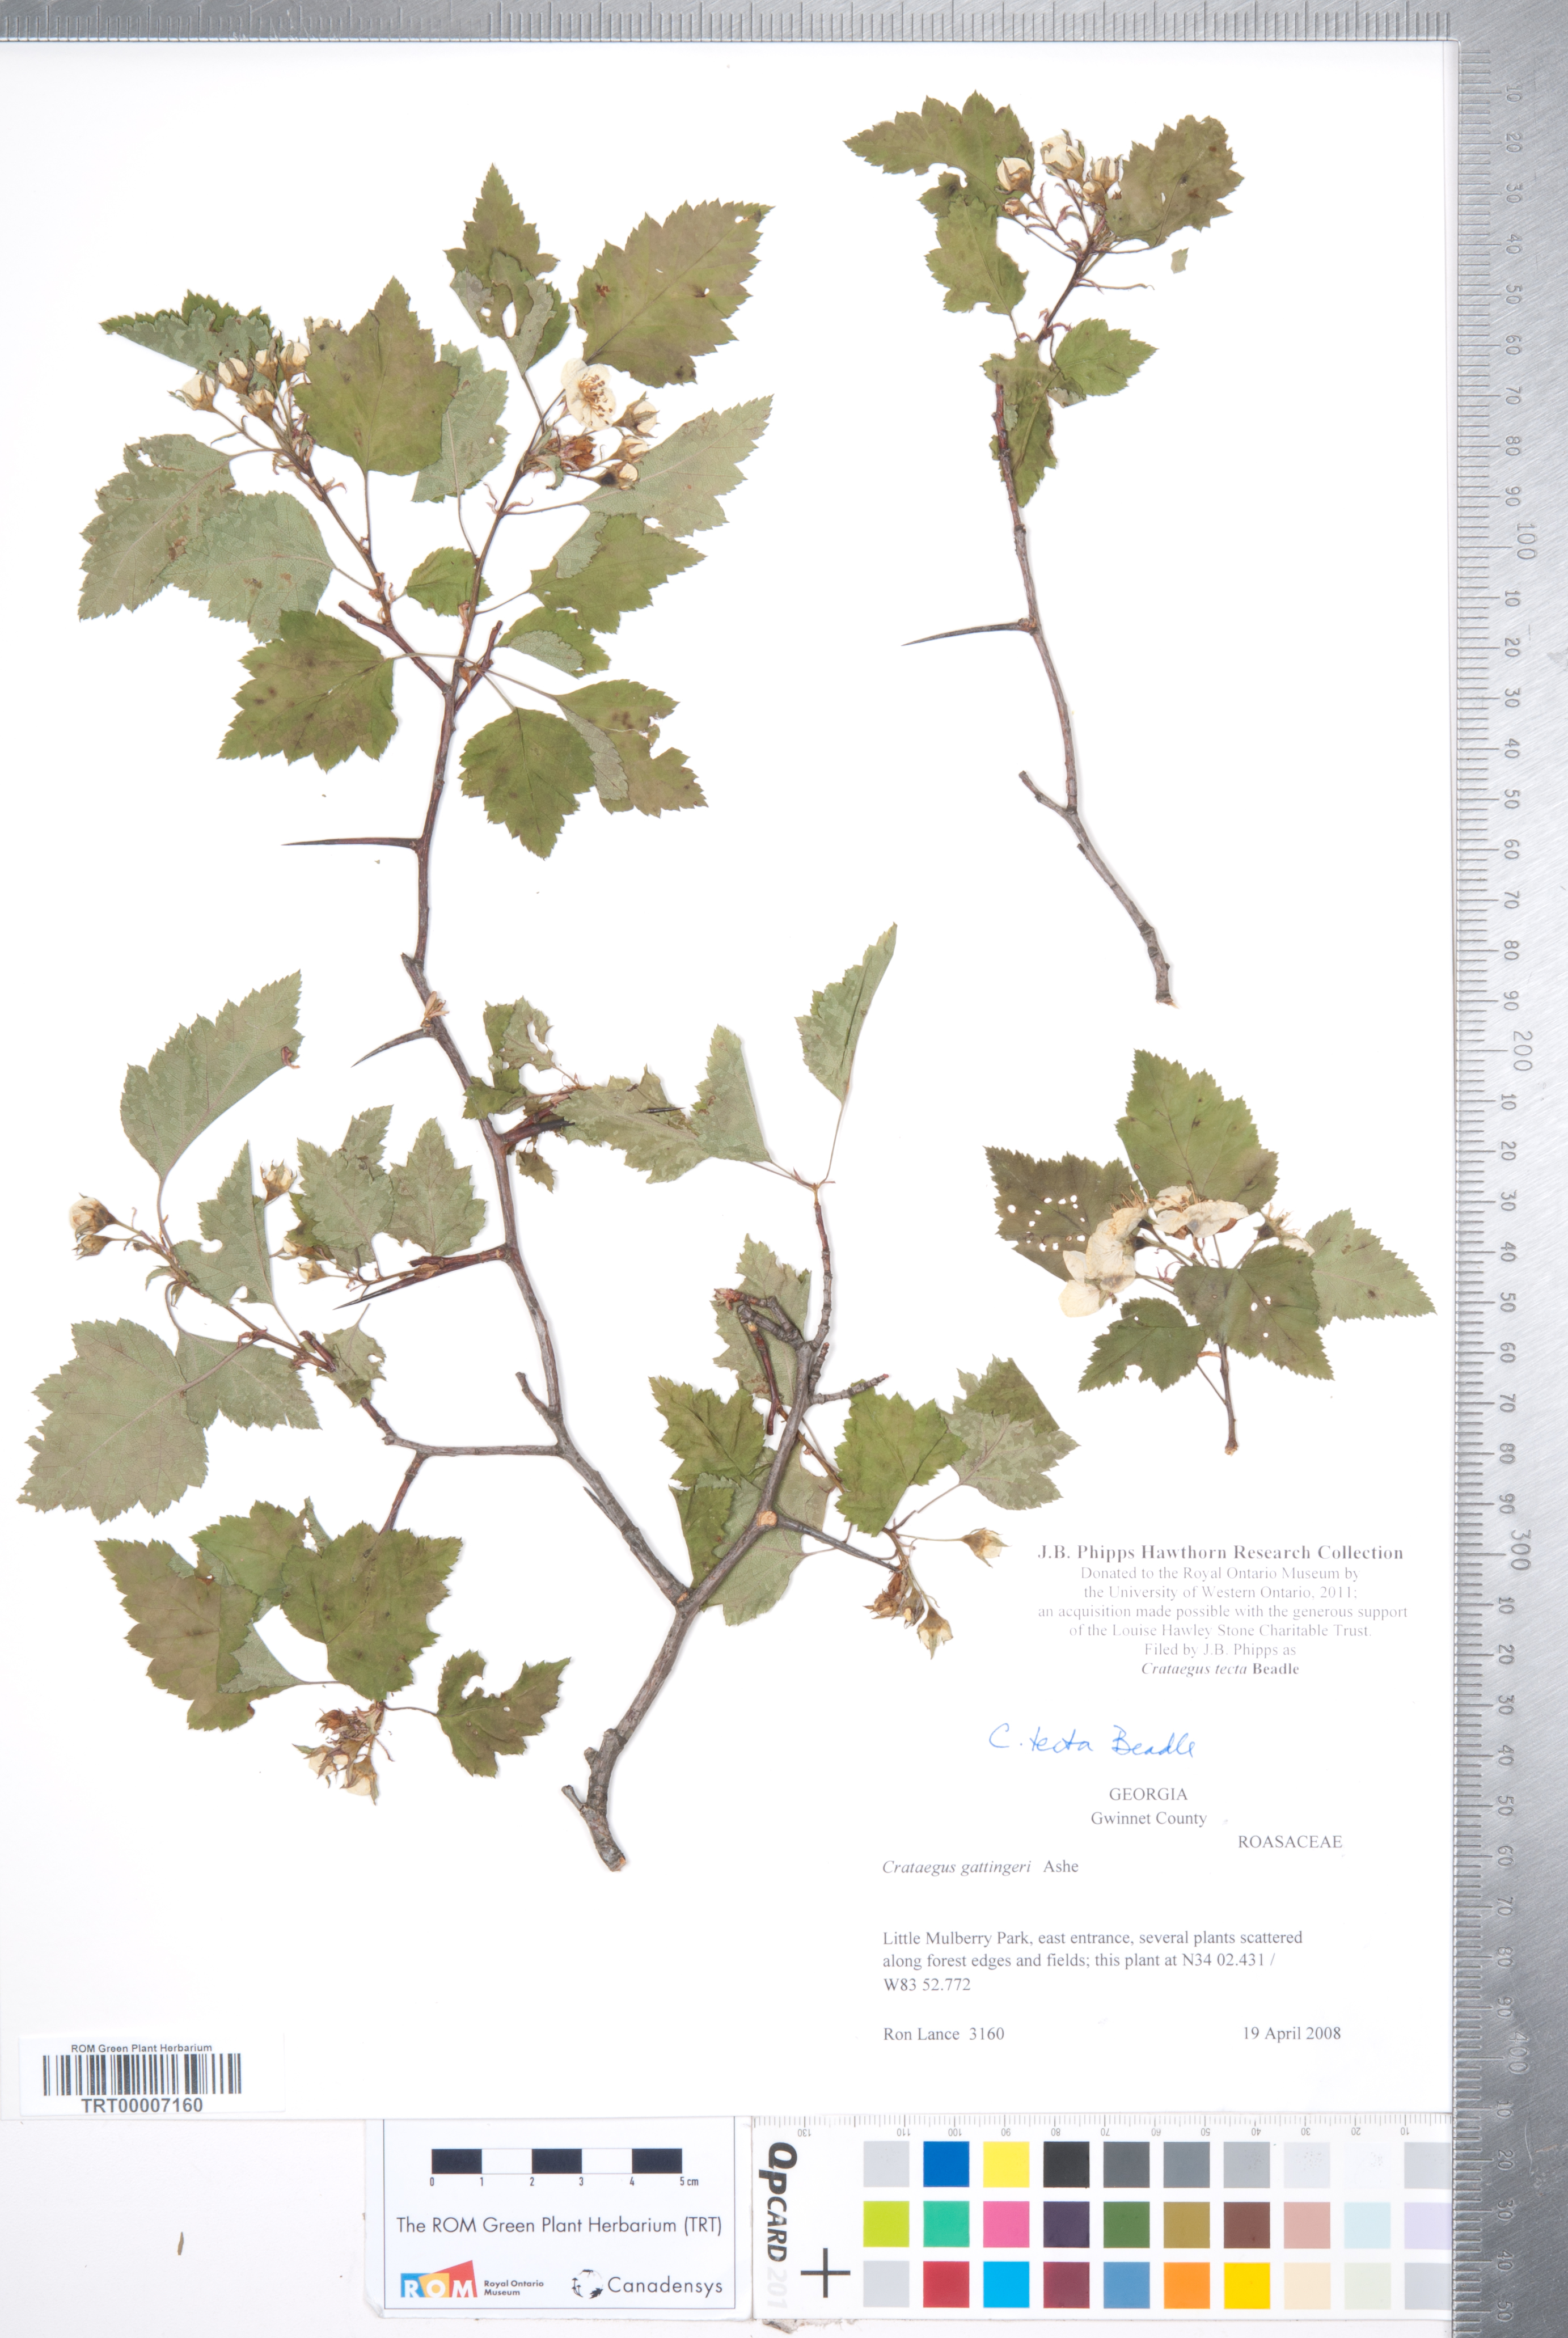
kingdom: Plantae
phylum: Tracheophyta
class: Magnoliopsida
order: Rosales
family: Rosaceae
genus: Crataegus
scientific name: Crataegus pulcherrima
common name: Beautiful hawthorn
